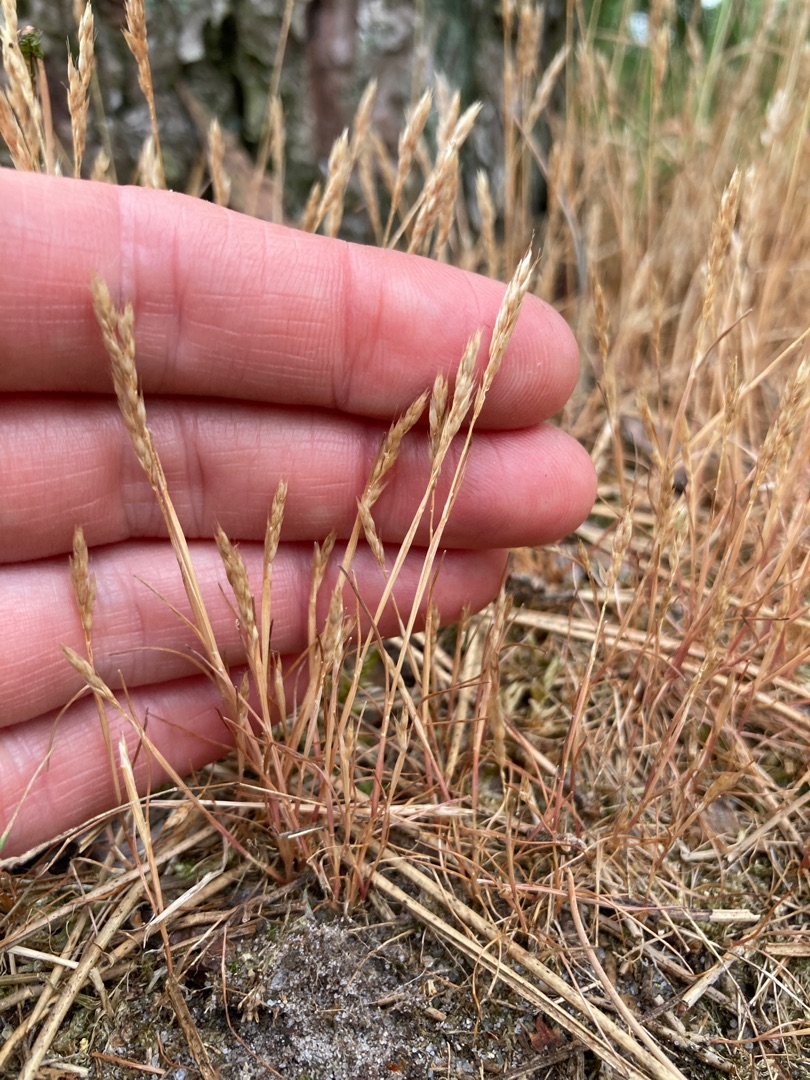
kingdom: Plantae
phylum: Tracheophyta
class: Liliopsida
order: Poales
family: Poaceae
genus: Aira
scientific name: Aira praecox
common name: Tidlig dværgbunke
